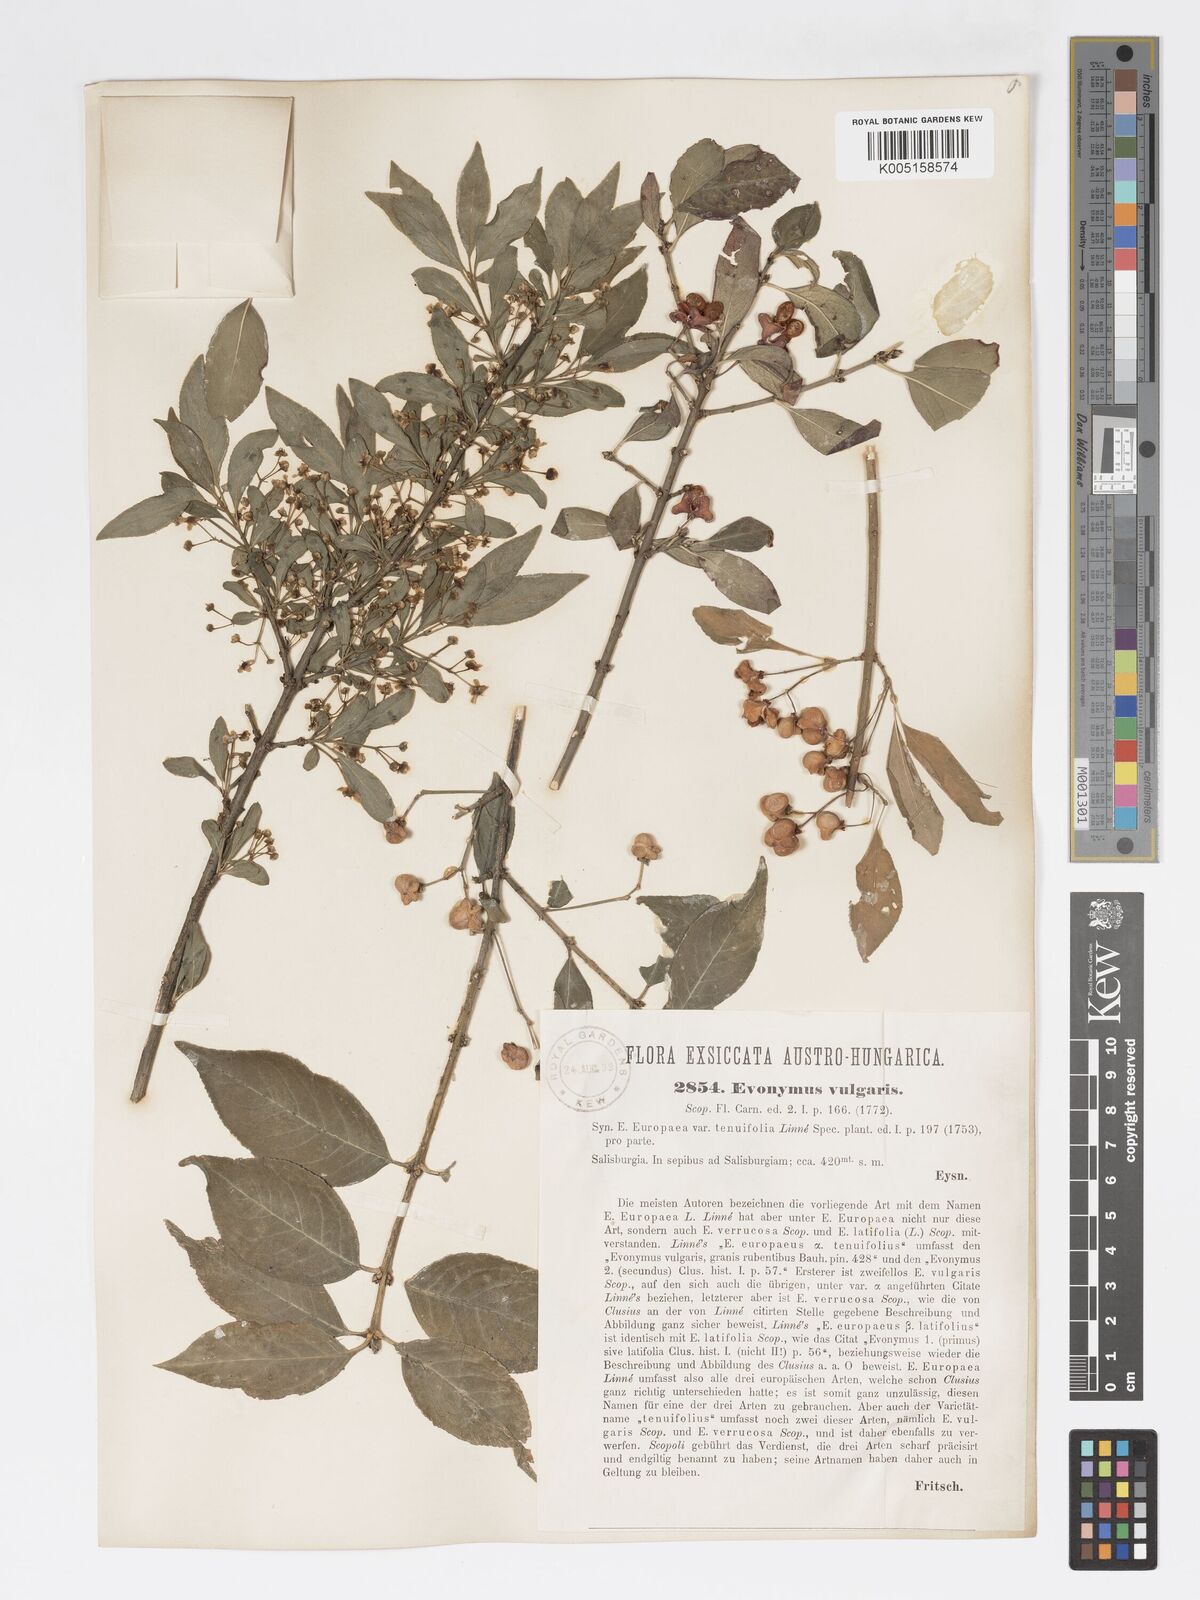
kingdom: Plantae
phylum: Tracheophyta
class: Magnoliopsida
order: Celastrales
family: Celastraceae
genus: Euonymus
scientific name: Euonymus europaeus
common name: Spindle
